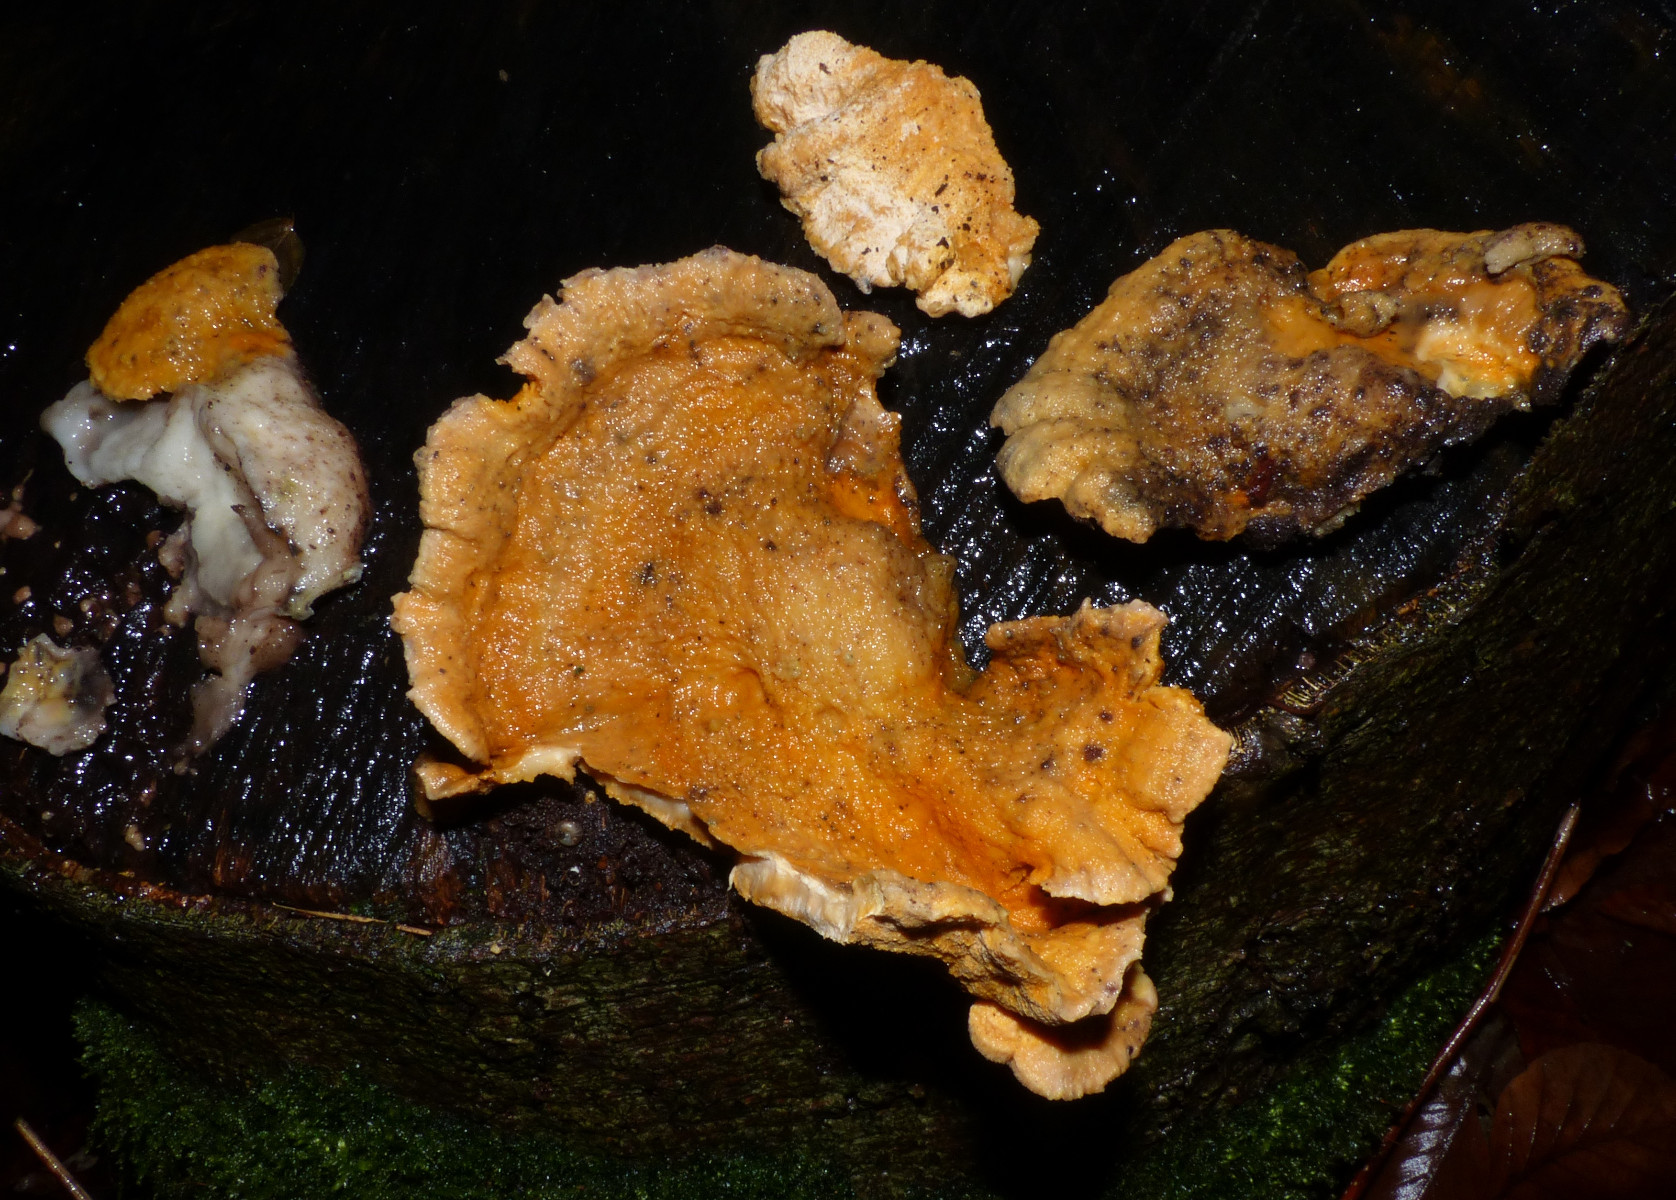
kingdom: Fungi
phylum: Ascomycota
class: Sordariomycetes
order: Hypocreales
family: Hypocreaceae
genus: Protocrea
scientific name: Protocrea pallida
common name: bleg kødkerne
